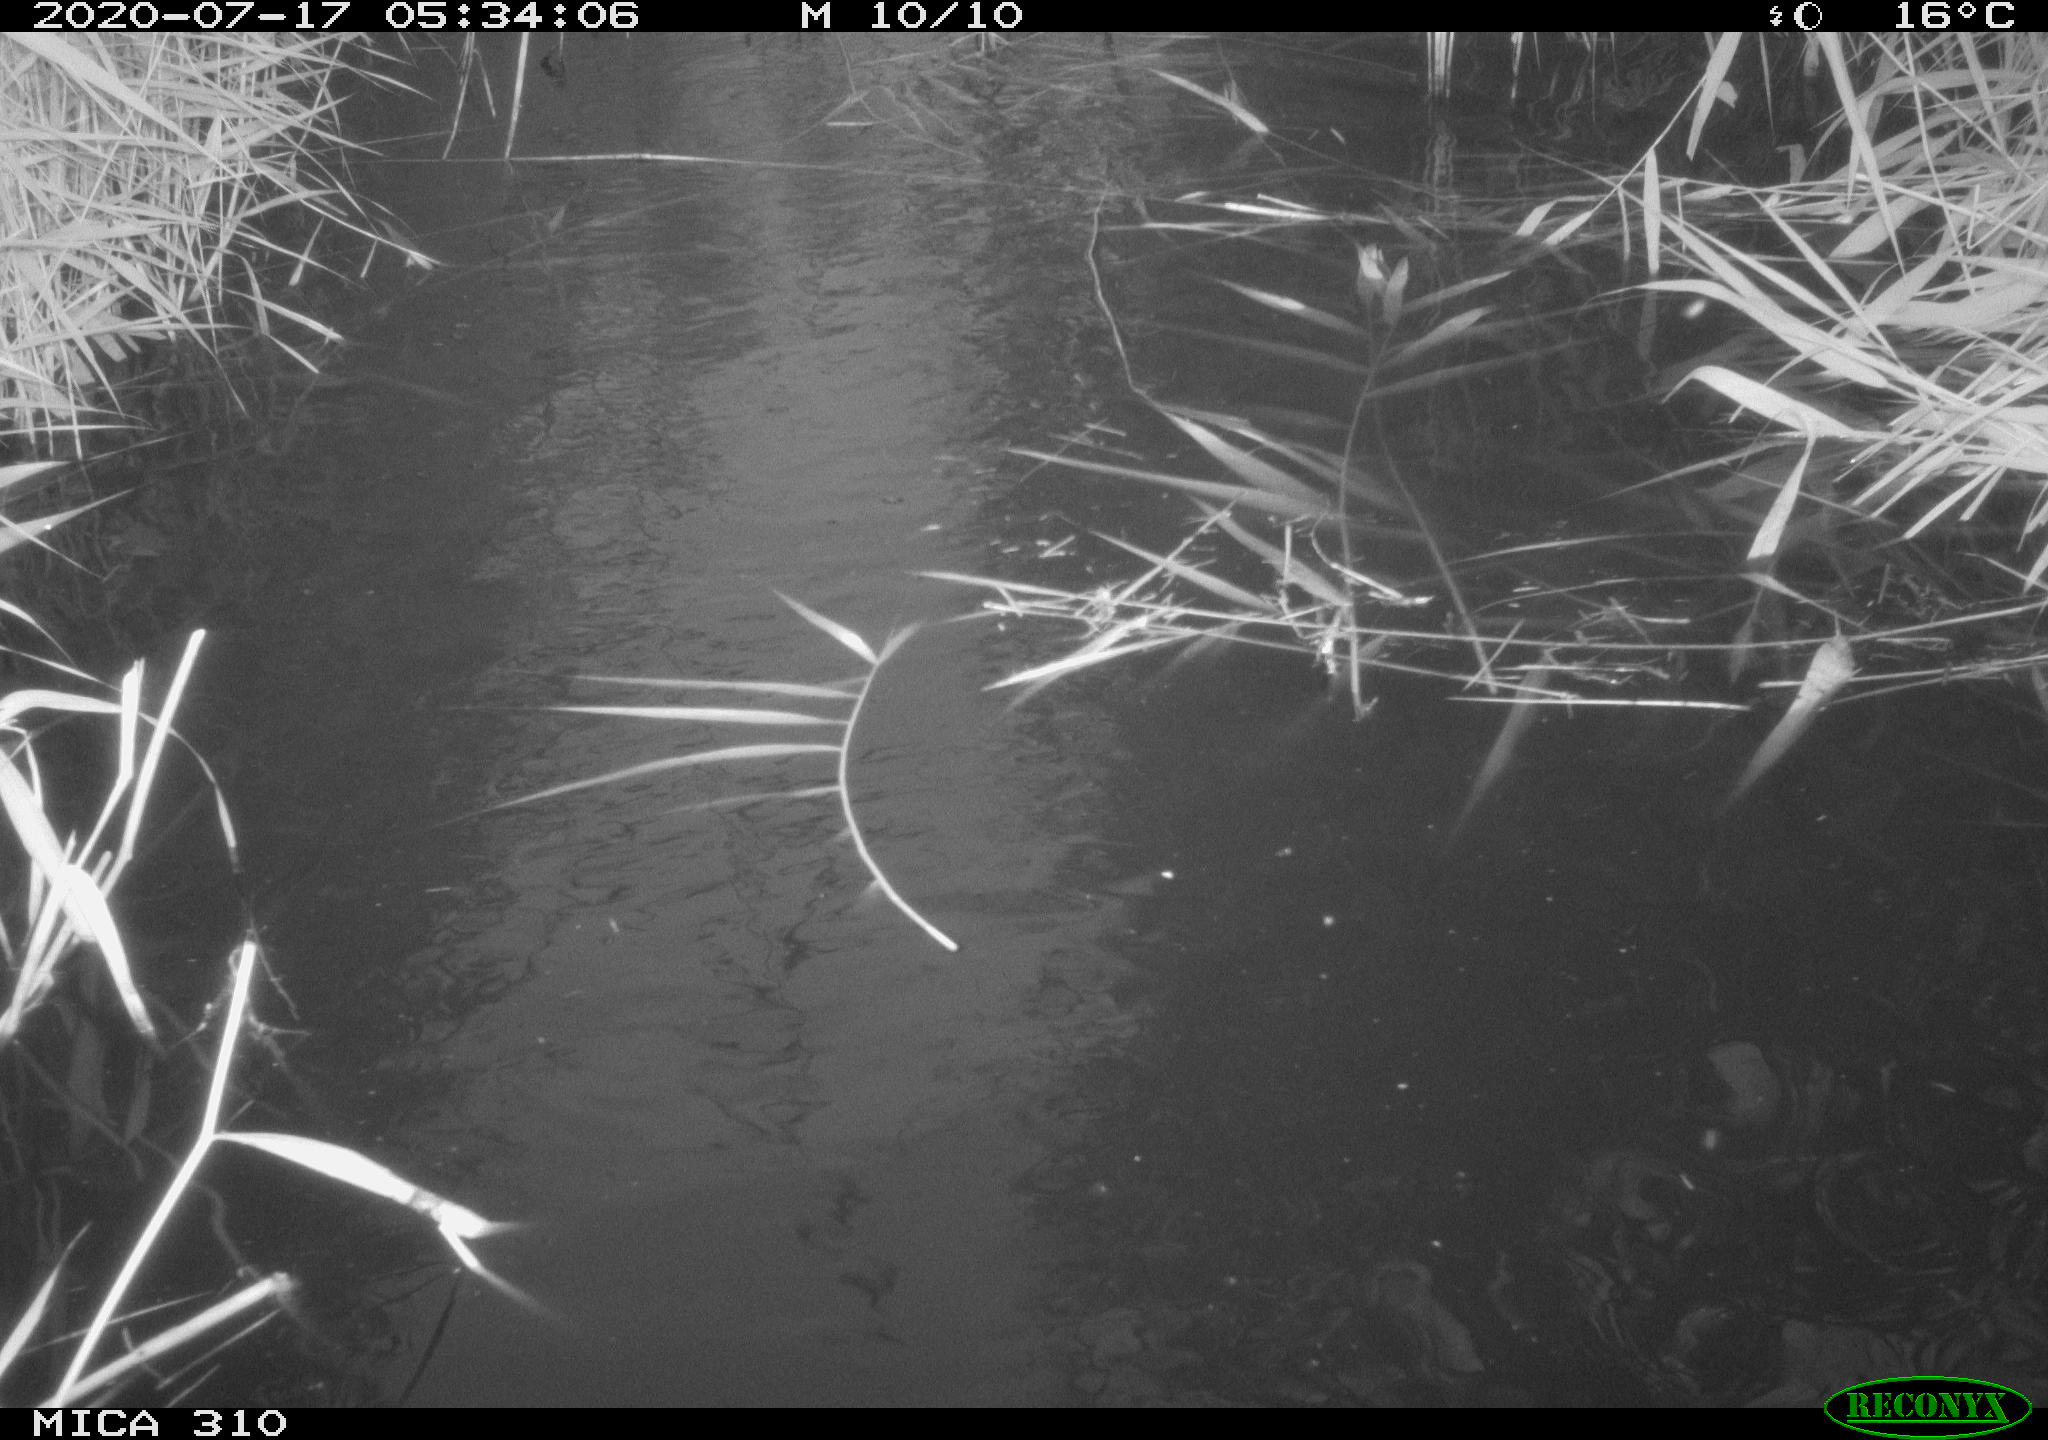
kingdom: Animalia
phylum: Chordata
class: Aves
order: Anseriformes
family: Anatidae
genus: Anas
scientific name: Anas platyrhynchos
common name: Mallard
